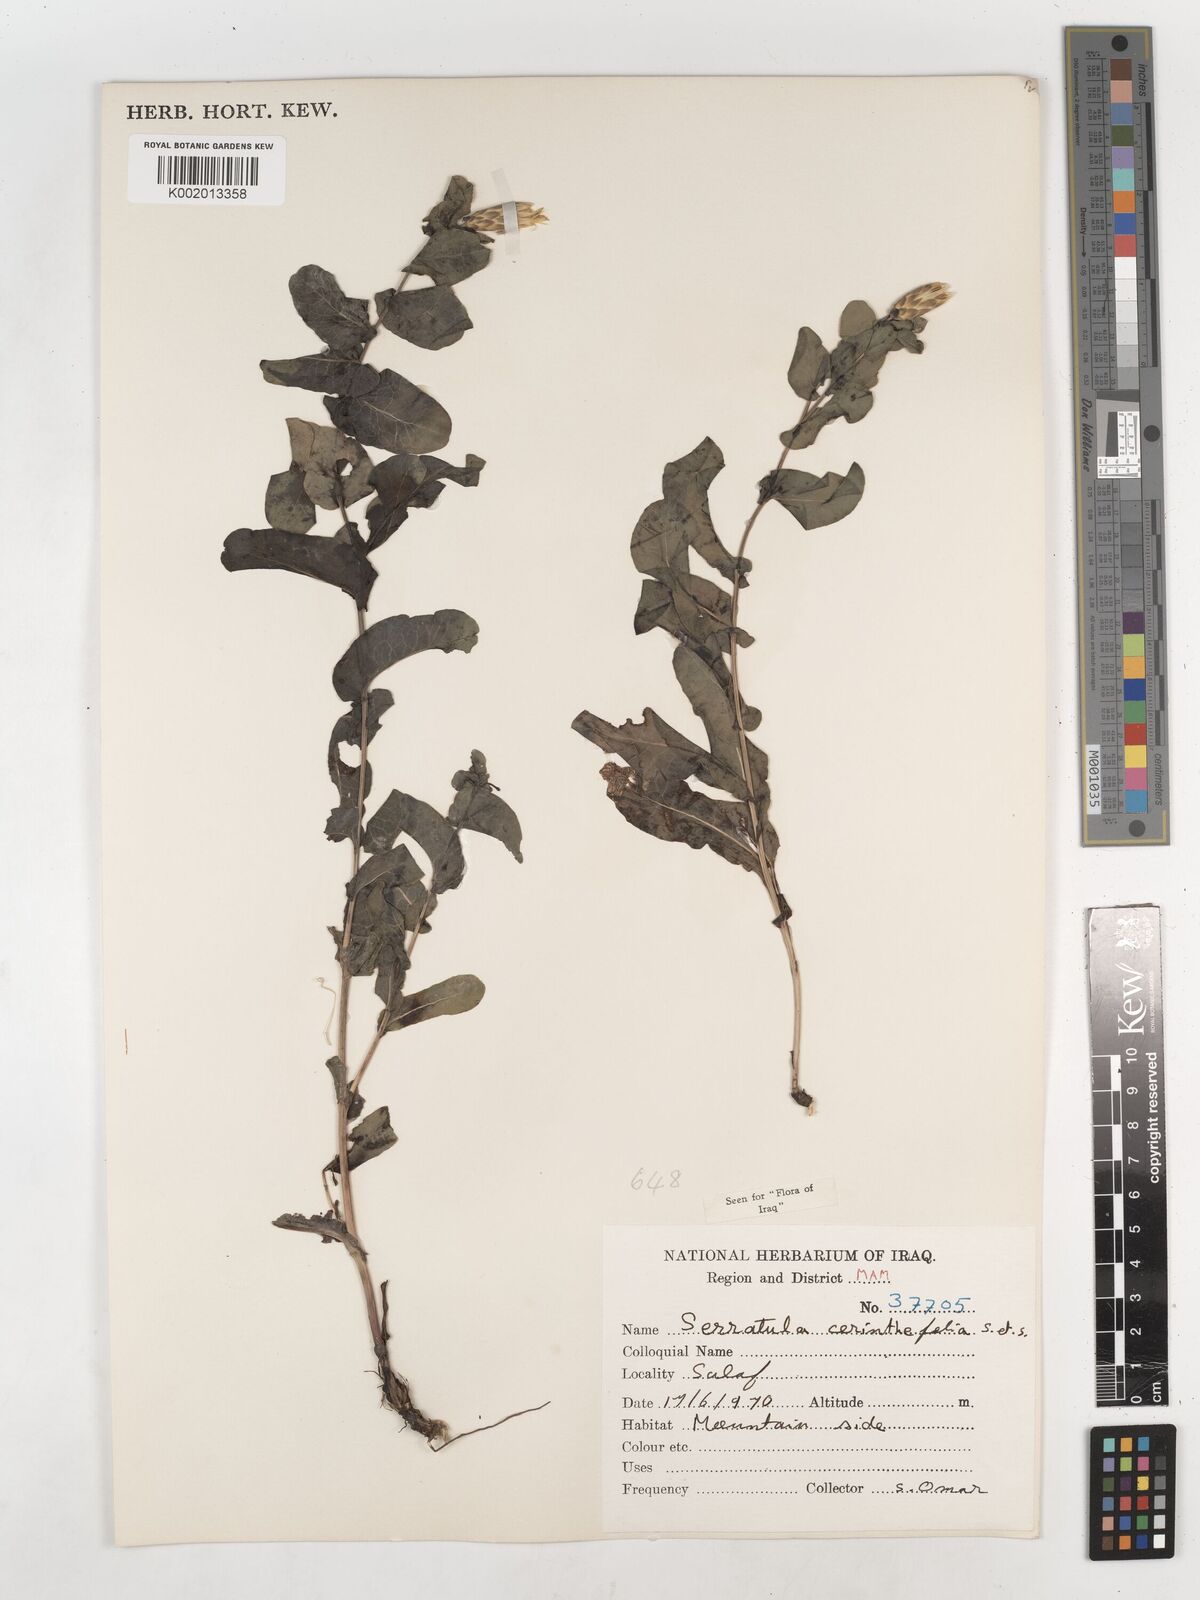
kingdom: Plantae
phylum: Tracheophyta
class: Magnoliopsida
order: Asterales
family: Asteraceae
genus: Klasea
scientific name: Klasea cerinthifolia
